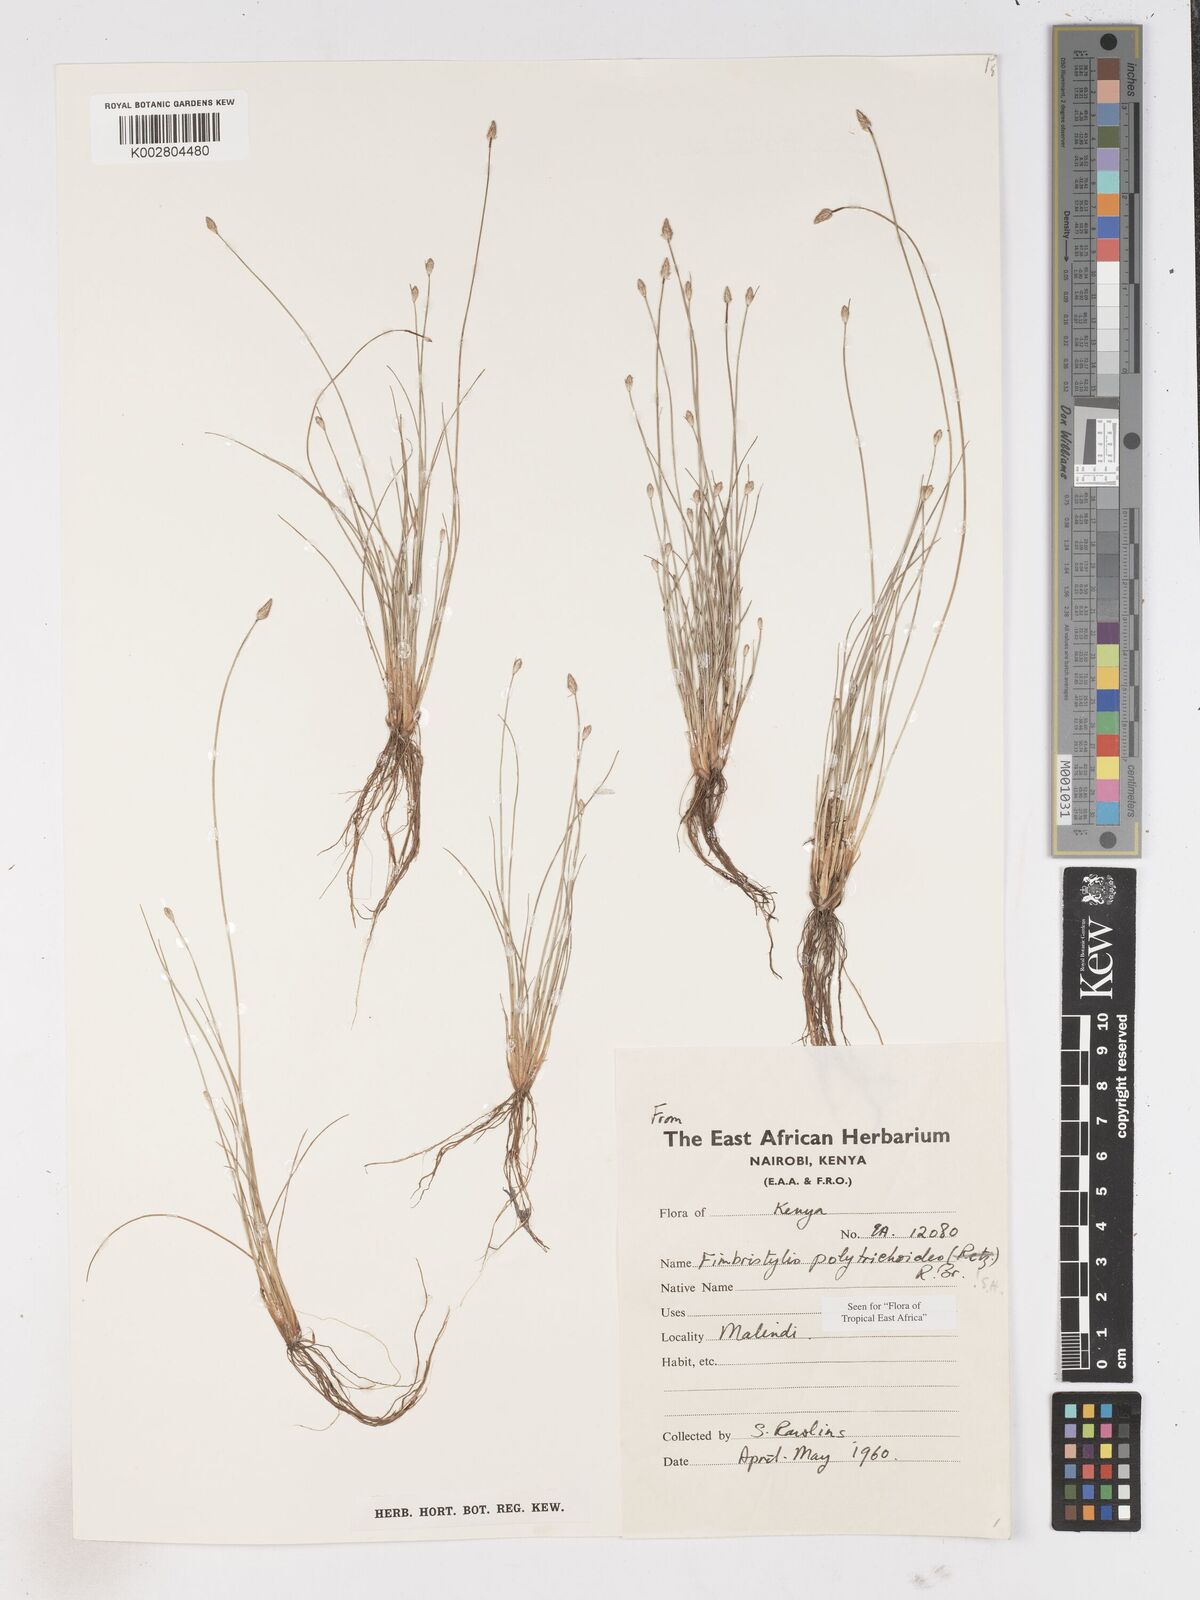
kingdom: Plantae
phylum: Tracheophyta
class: Liliopsida
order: Poales
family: Cyperaceae
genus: Fimbristylis
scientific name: Fimbristylis polytrichoides
